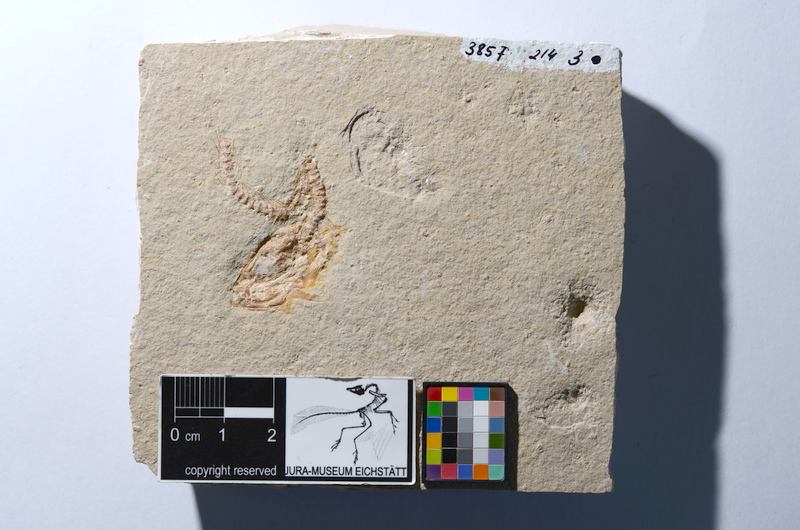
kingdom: Animalia
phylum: Chordata
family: Ascalaboidae
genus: Tharsis
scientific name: Tharsis dubius
